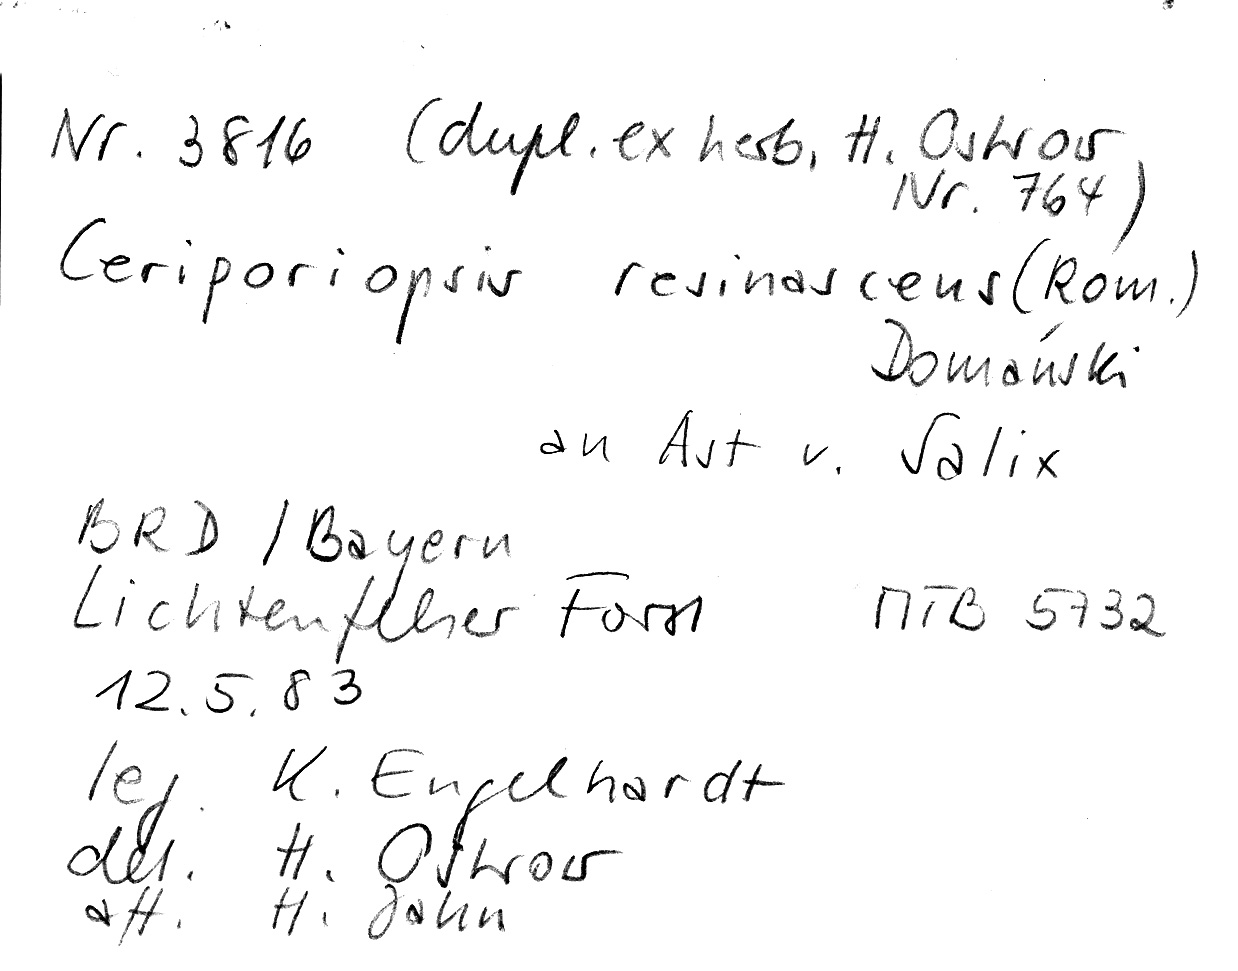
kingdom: Plantae
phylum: Tracheophyta
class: Magnoliopsida
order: Malpighiales
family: Salicaceae
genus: Salix
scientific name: Salix caprea
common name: Goat willow
